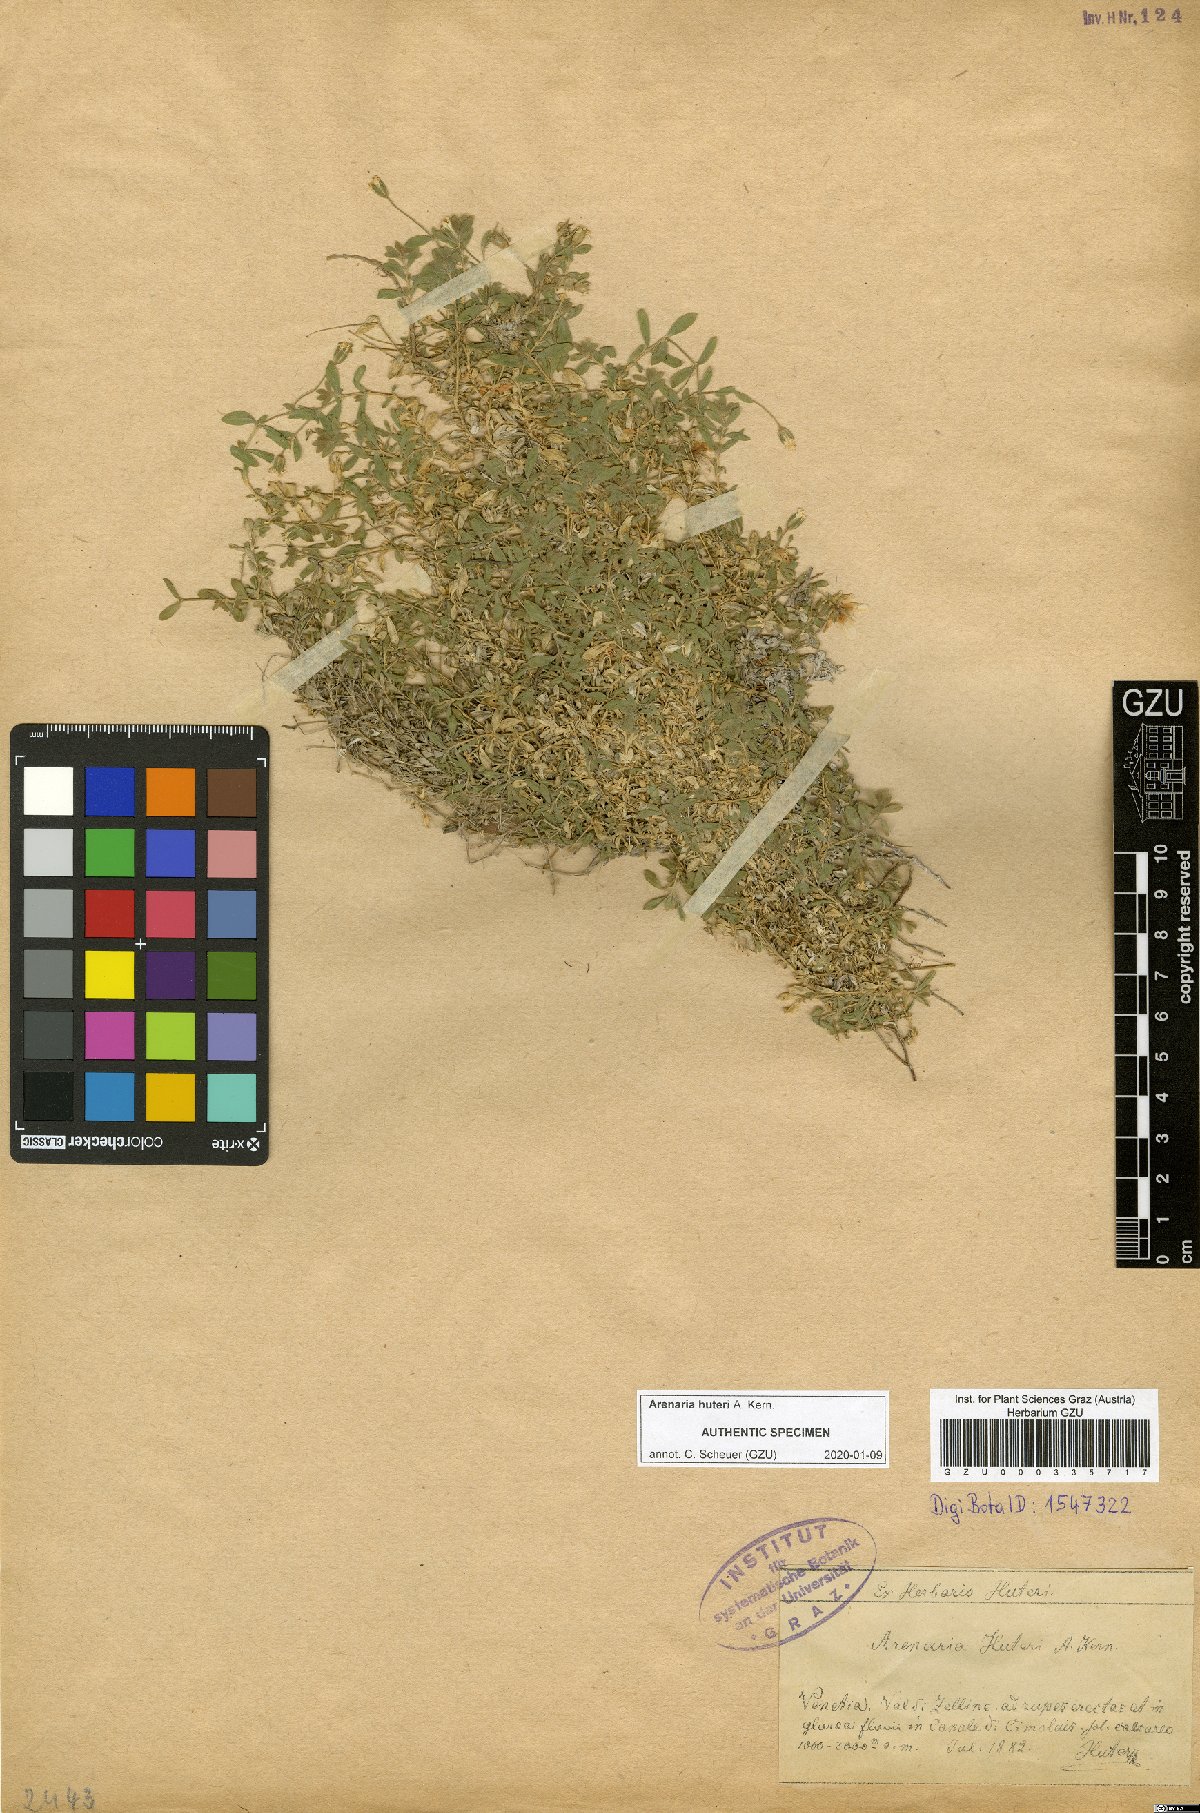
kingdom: Plantae
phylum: Tracheophyta
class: Magnoliopsida
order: Caryophyllales
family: Caryophyllaceae
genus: Arenaria
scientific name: Arenaria huteri
